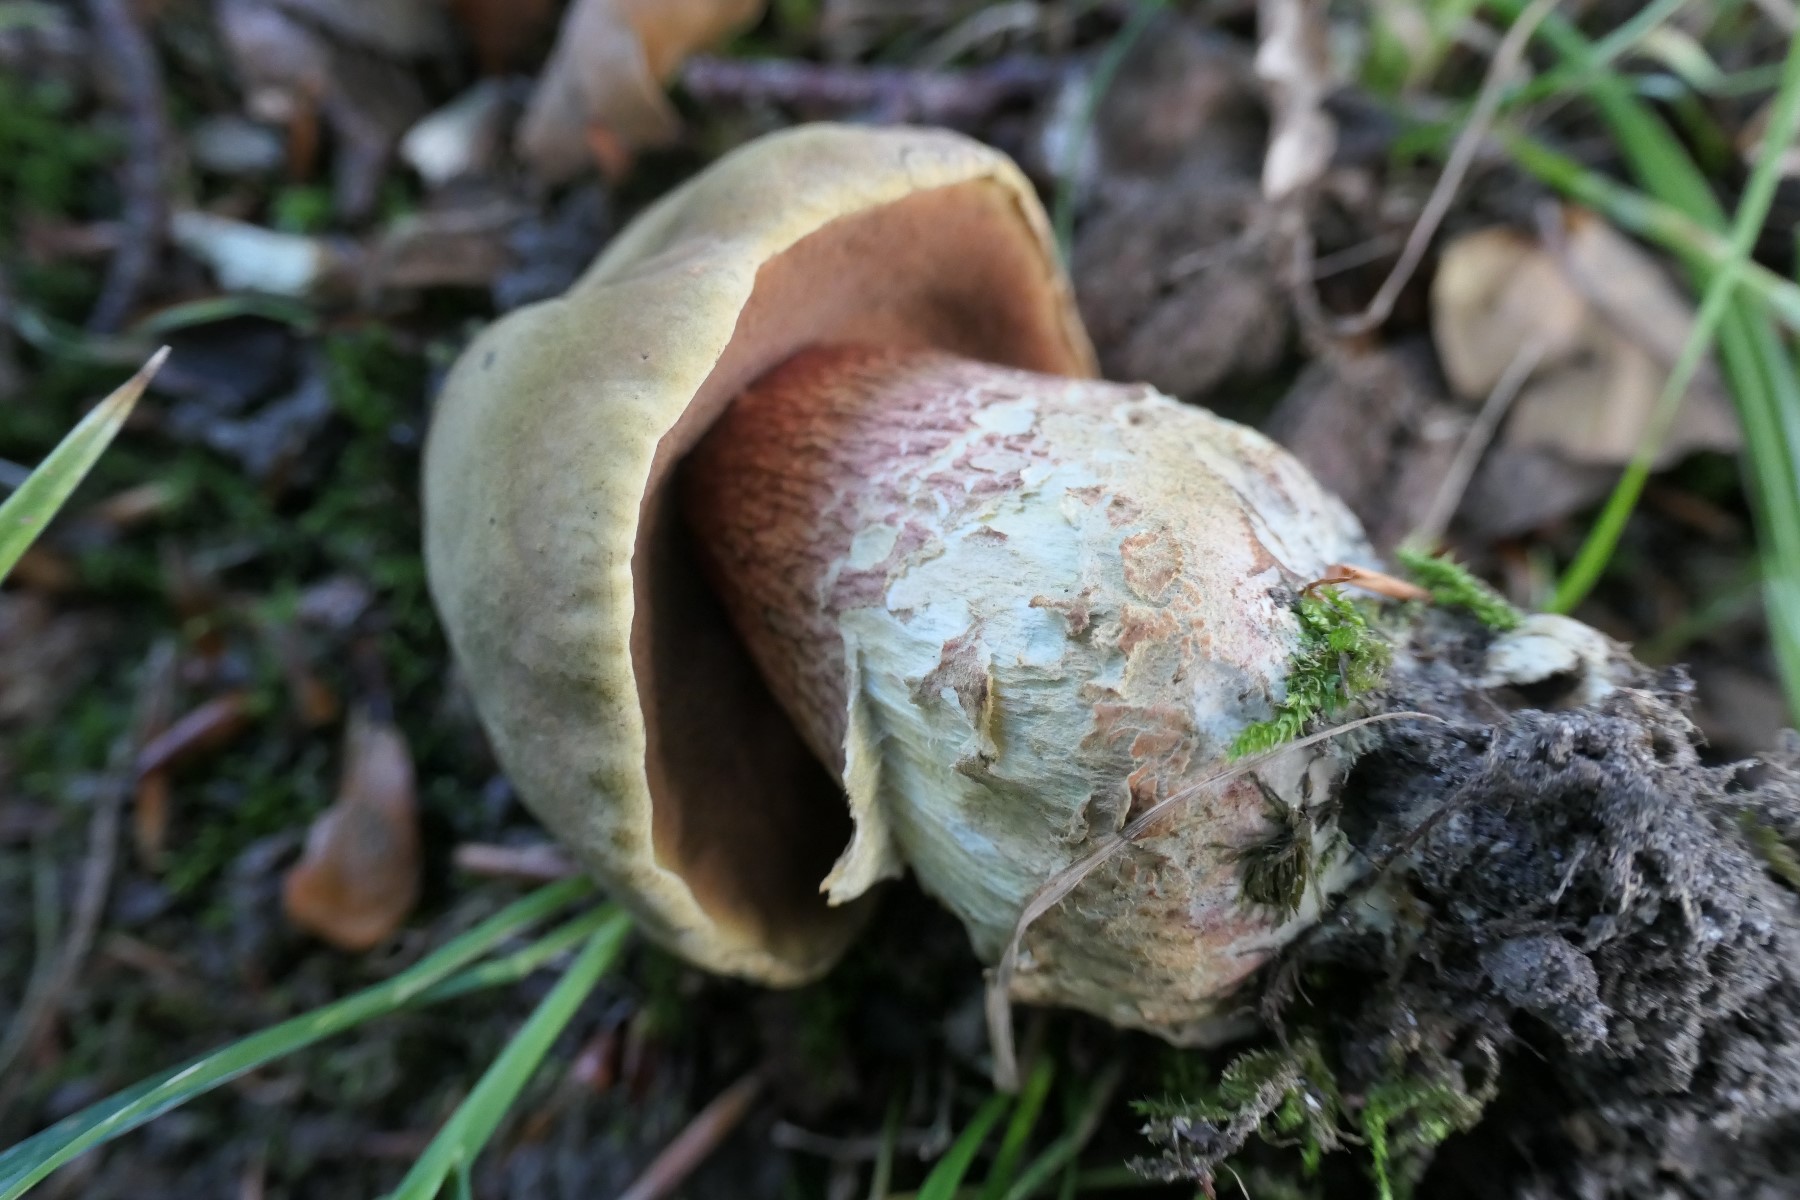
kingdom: Fungi
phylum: Basidiomycota
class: Agaricomycetes
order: Boletales
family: Boletaceae
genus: Suillellus
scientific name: Suillellus luridus
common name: netstokket indigorørhat
